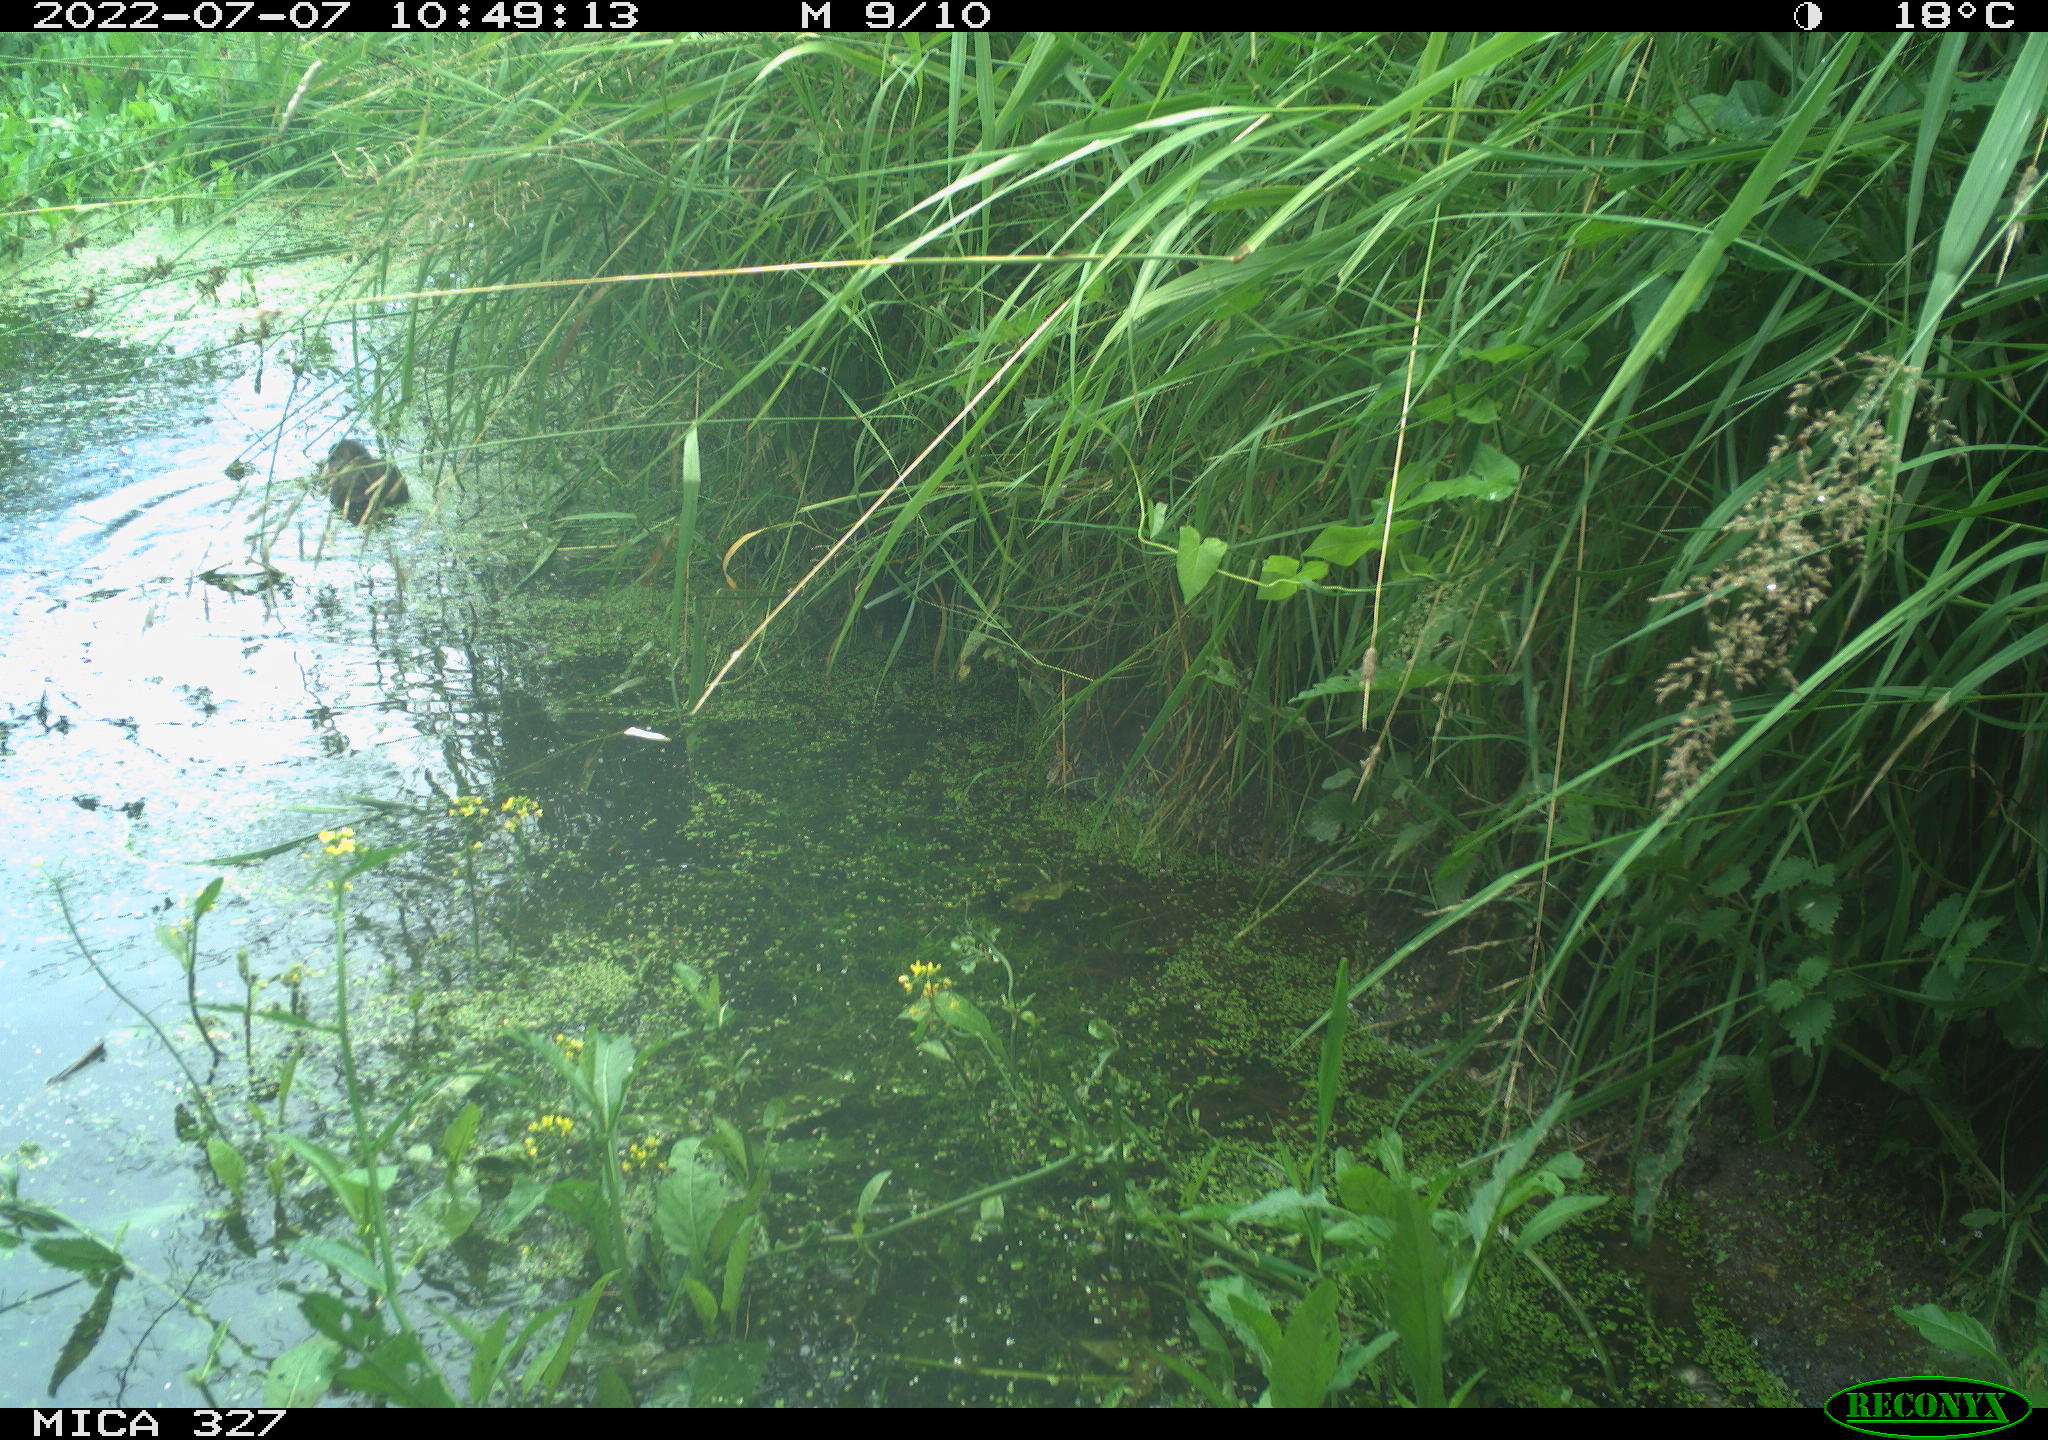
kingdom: Animalia
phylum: Chordata
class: Aves
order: Gruiformes
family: Rallidae
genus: Gallinula
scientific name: Gallinula chloropus
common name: Common moorhen
